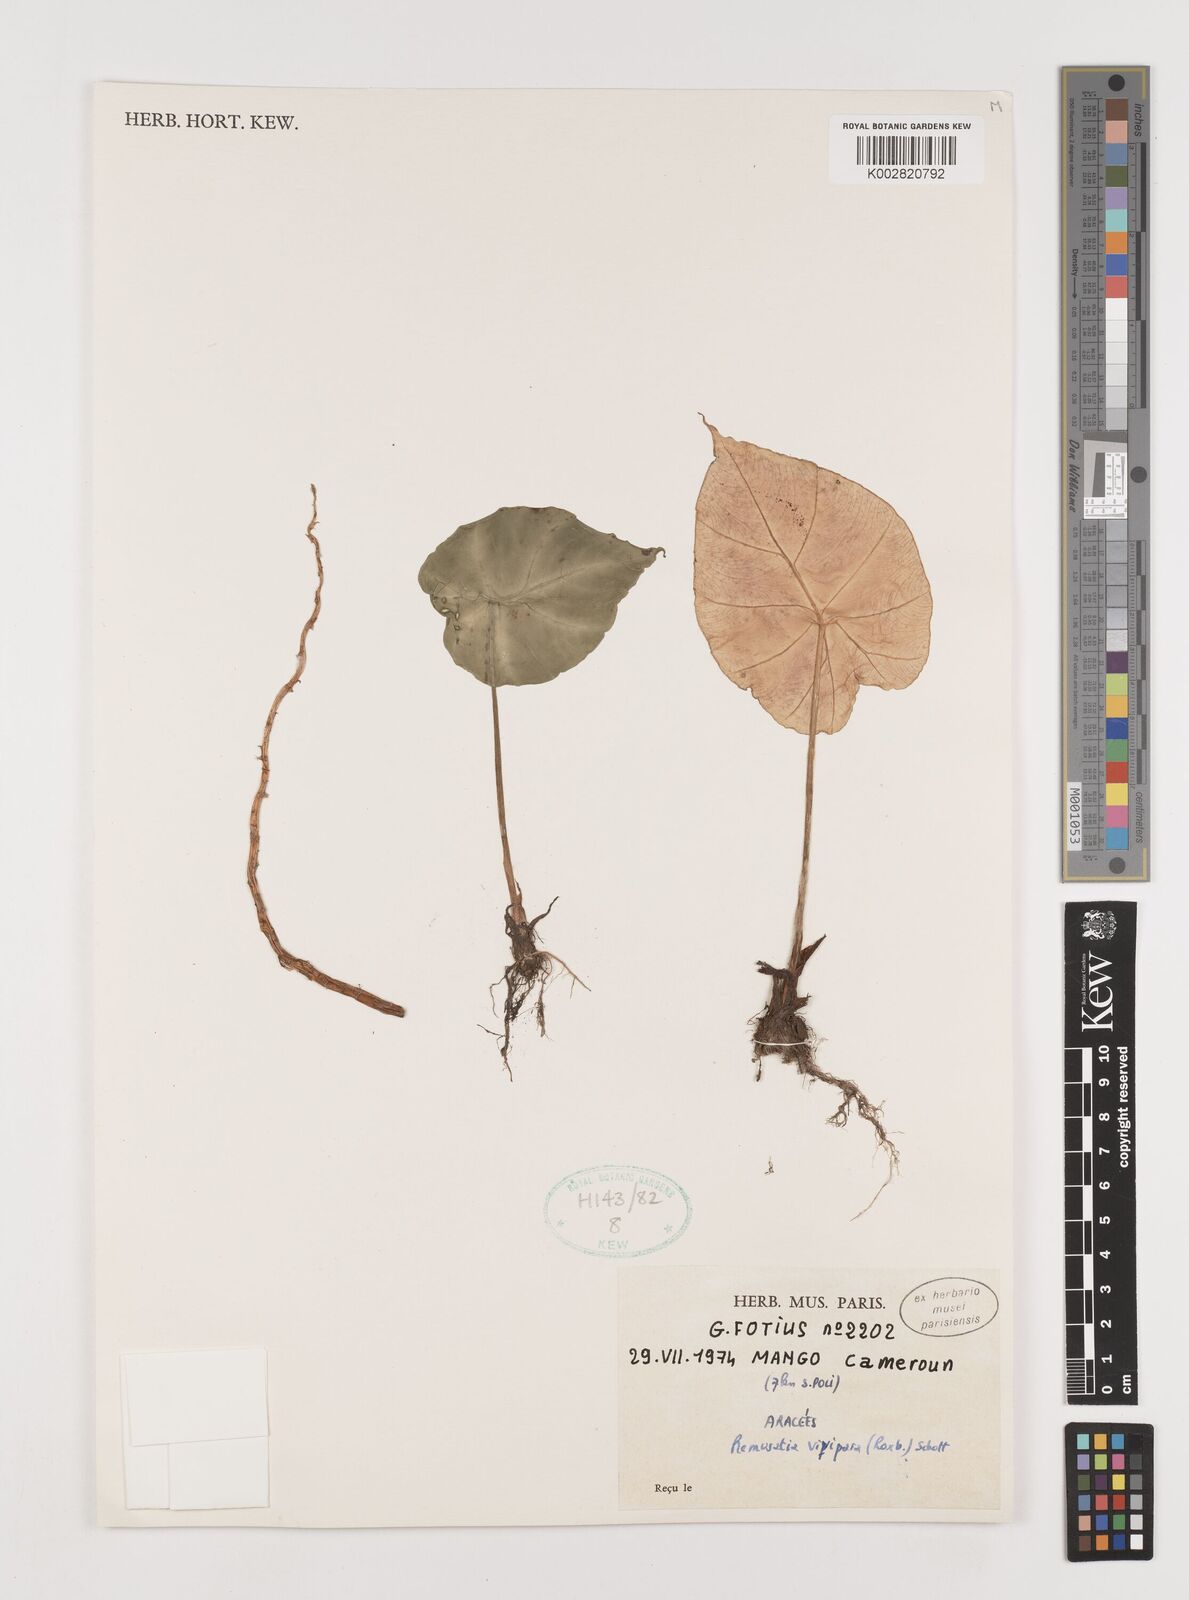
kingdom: Plantae
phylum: Tracheophyta
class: Liliopsida
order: Alismatales
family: Araceae
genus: Remusatia
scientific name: Remusatia vivipara
